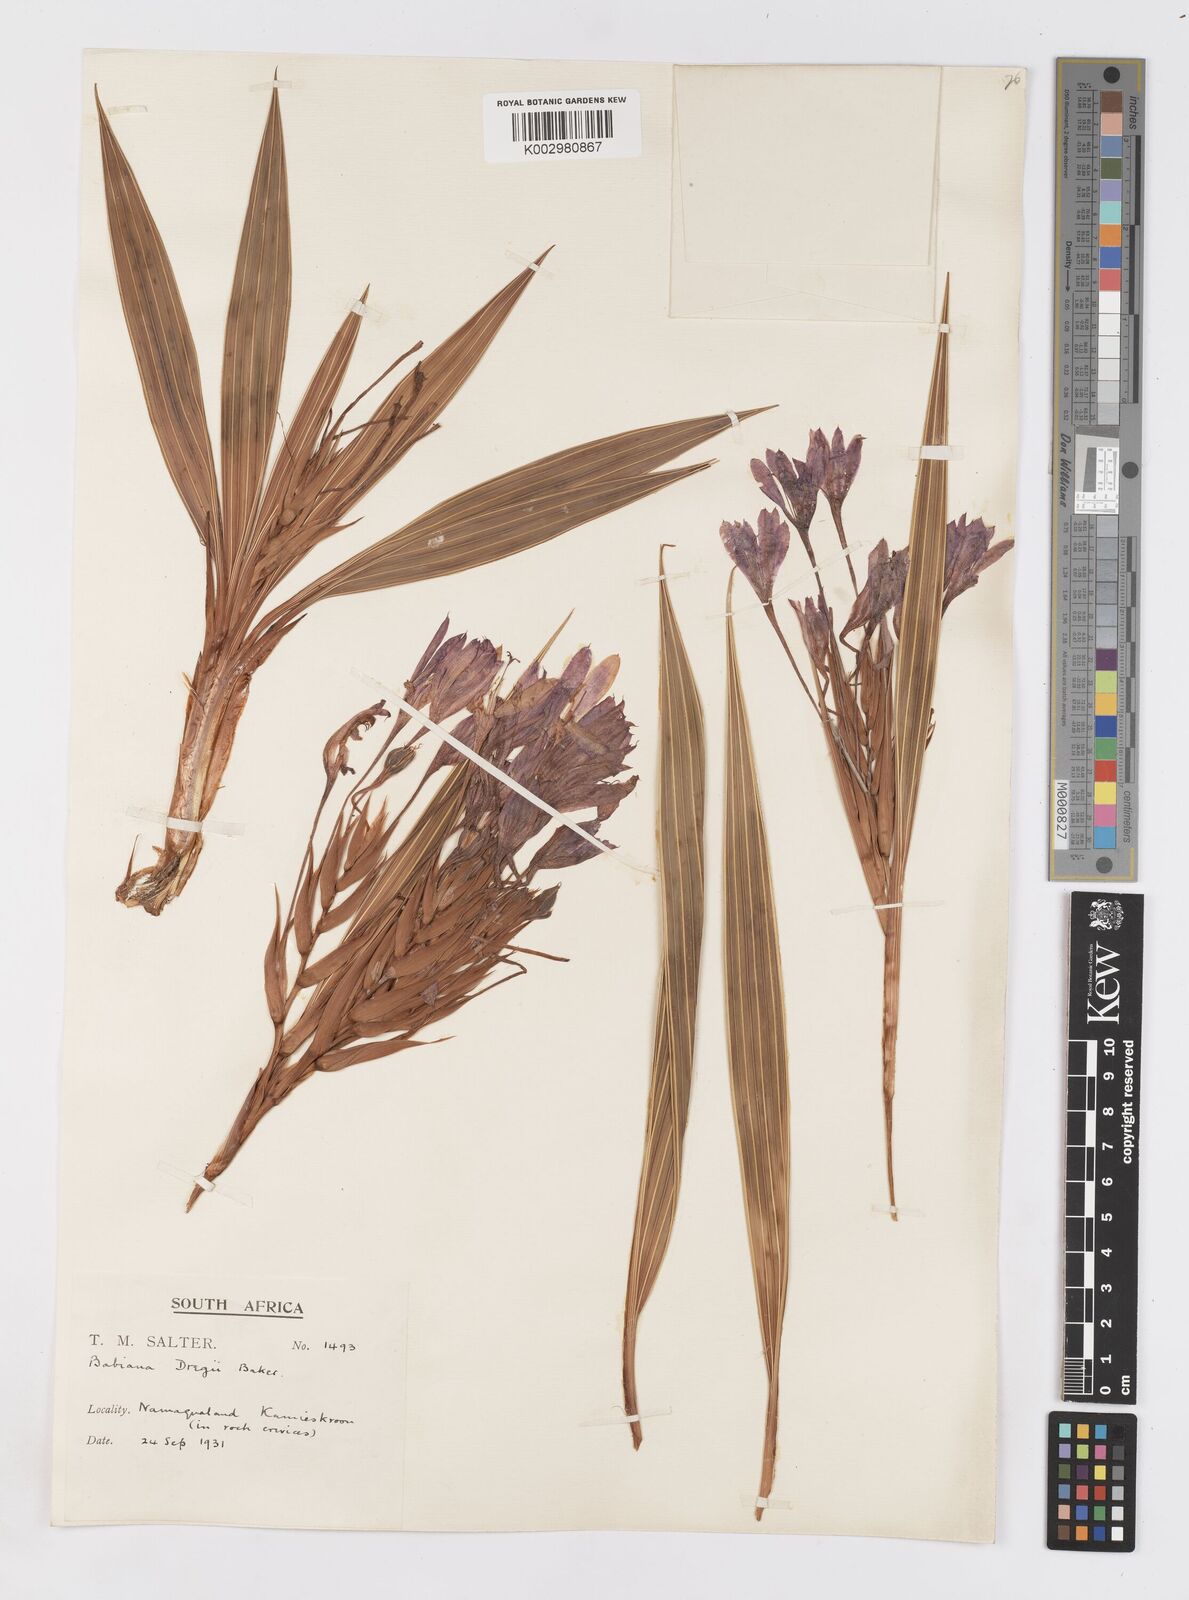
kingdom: Plantae
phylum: Tracheophyta
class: Liliopsida
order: Asparagales
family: Iridaceae
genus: Babiana
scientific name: Babiana dregei
